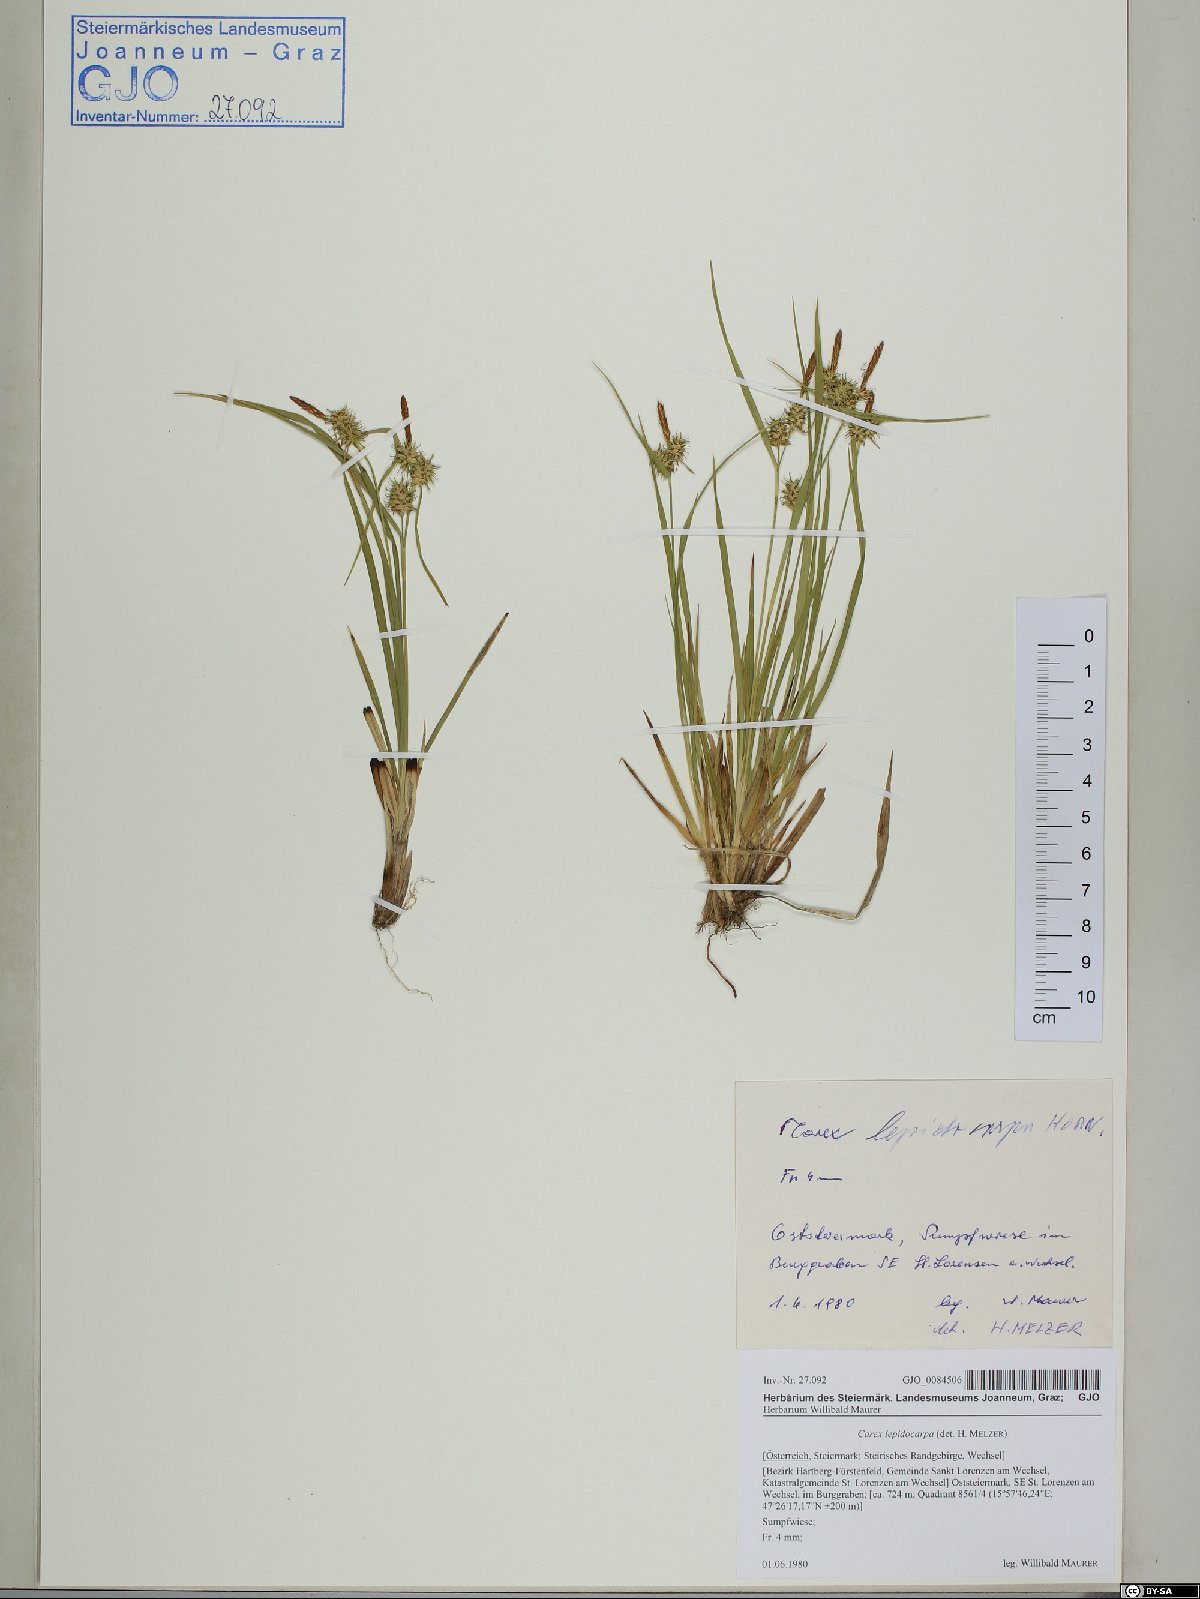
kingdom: Plantae
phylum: Tracheophyta
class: Liliopsida
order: Poales
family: Cyperaceae
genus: Carex
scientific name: Carex lepidocarpa
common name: Long-stalked yellow-sedge
